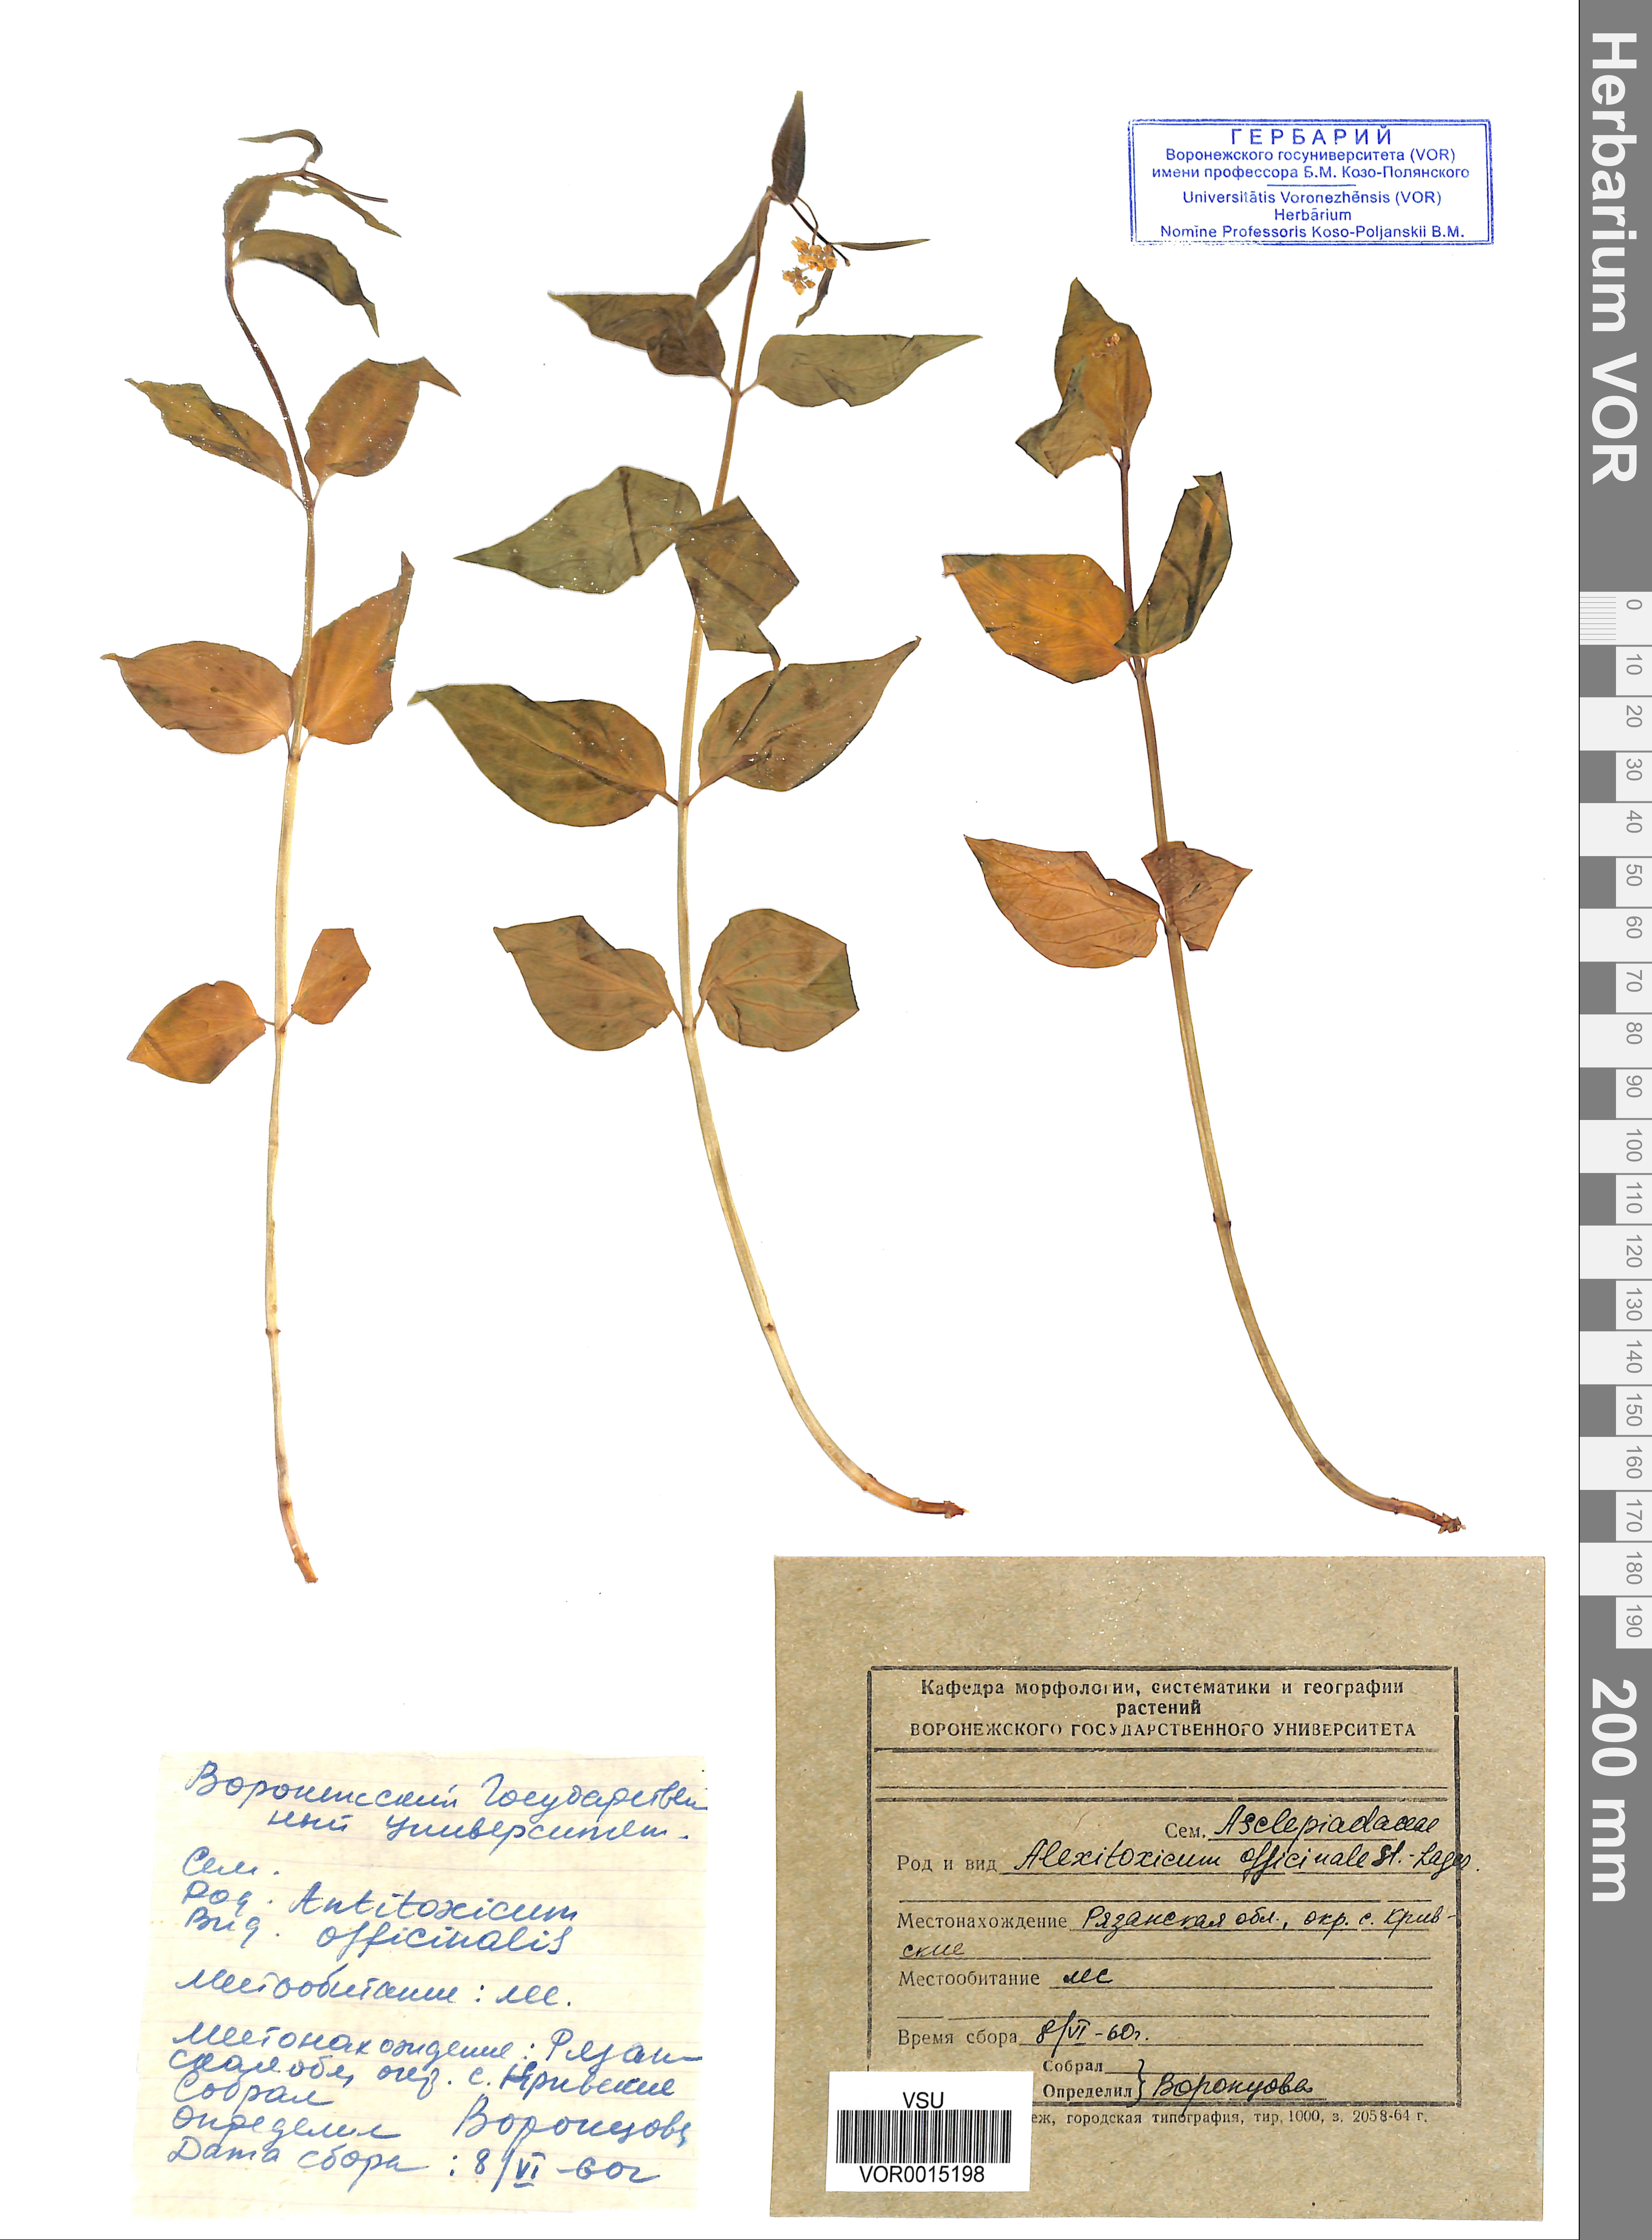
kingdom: Plantae
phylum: Tracheophyta
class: Magnoliopsida
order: Gentianales
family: Apocynaceae
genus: Vincetoxicum
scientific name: Vincetoxicum hirundinaria
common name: White swallowwort
